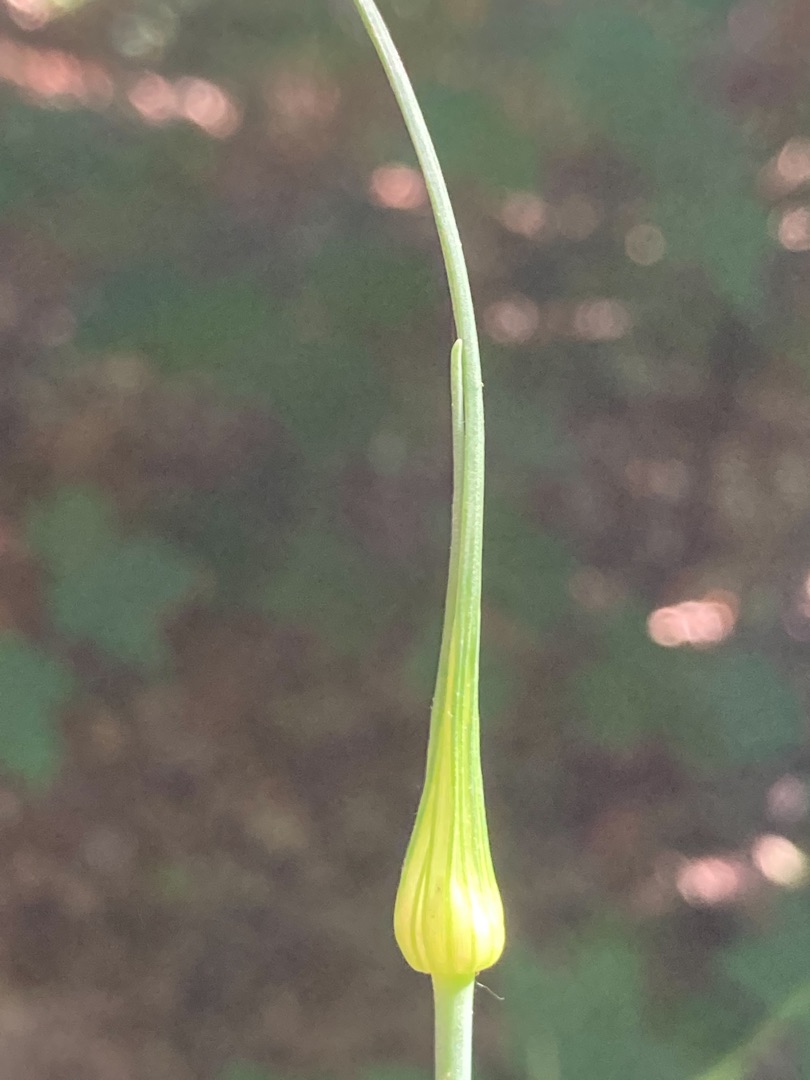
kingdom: Plantae
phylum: Tracheophyta
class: Liliopsida
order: Asparagales
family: Amaryllidaceae
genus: Allium
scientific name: Allium oleraceum
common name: Vild løg
